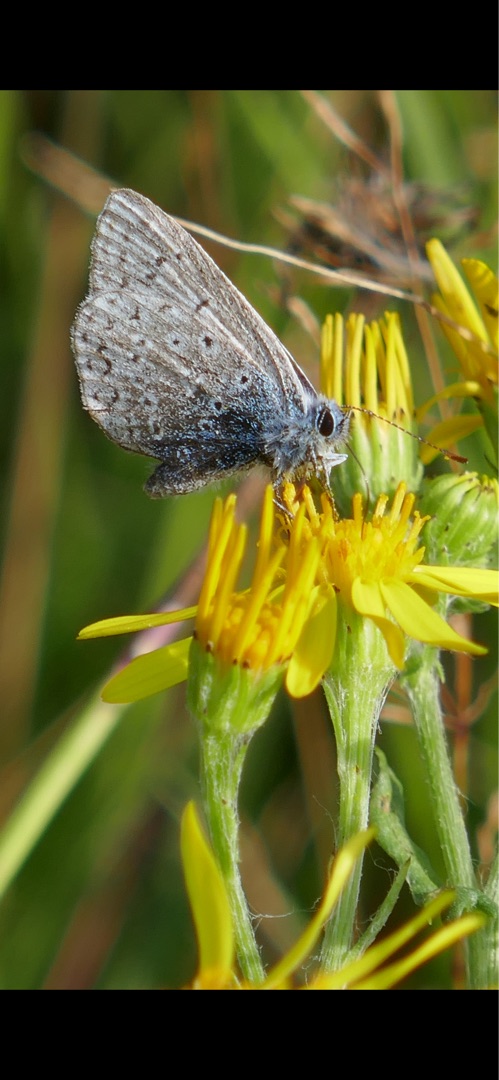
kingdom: Animalia
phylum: Arthropoda
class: Insecta
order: Lepidoptera
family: Lycaenidae
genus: Polyommatus
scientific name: Polyommatus icarus
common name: Almindelig blåfugl
